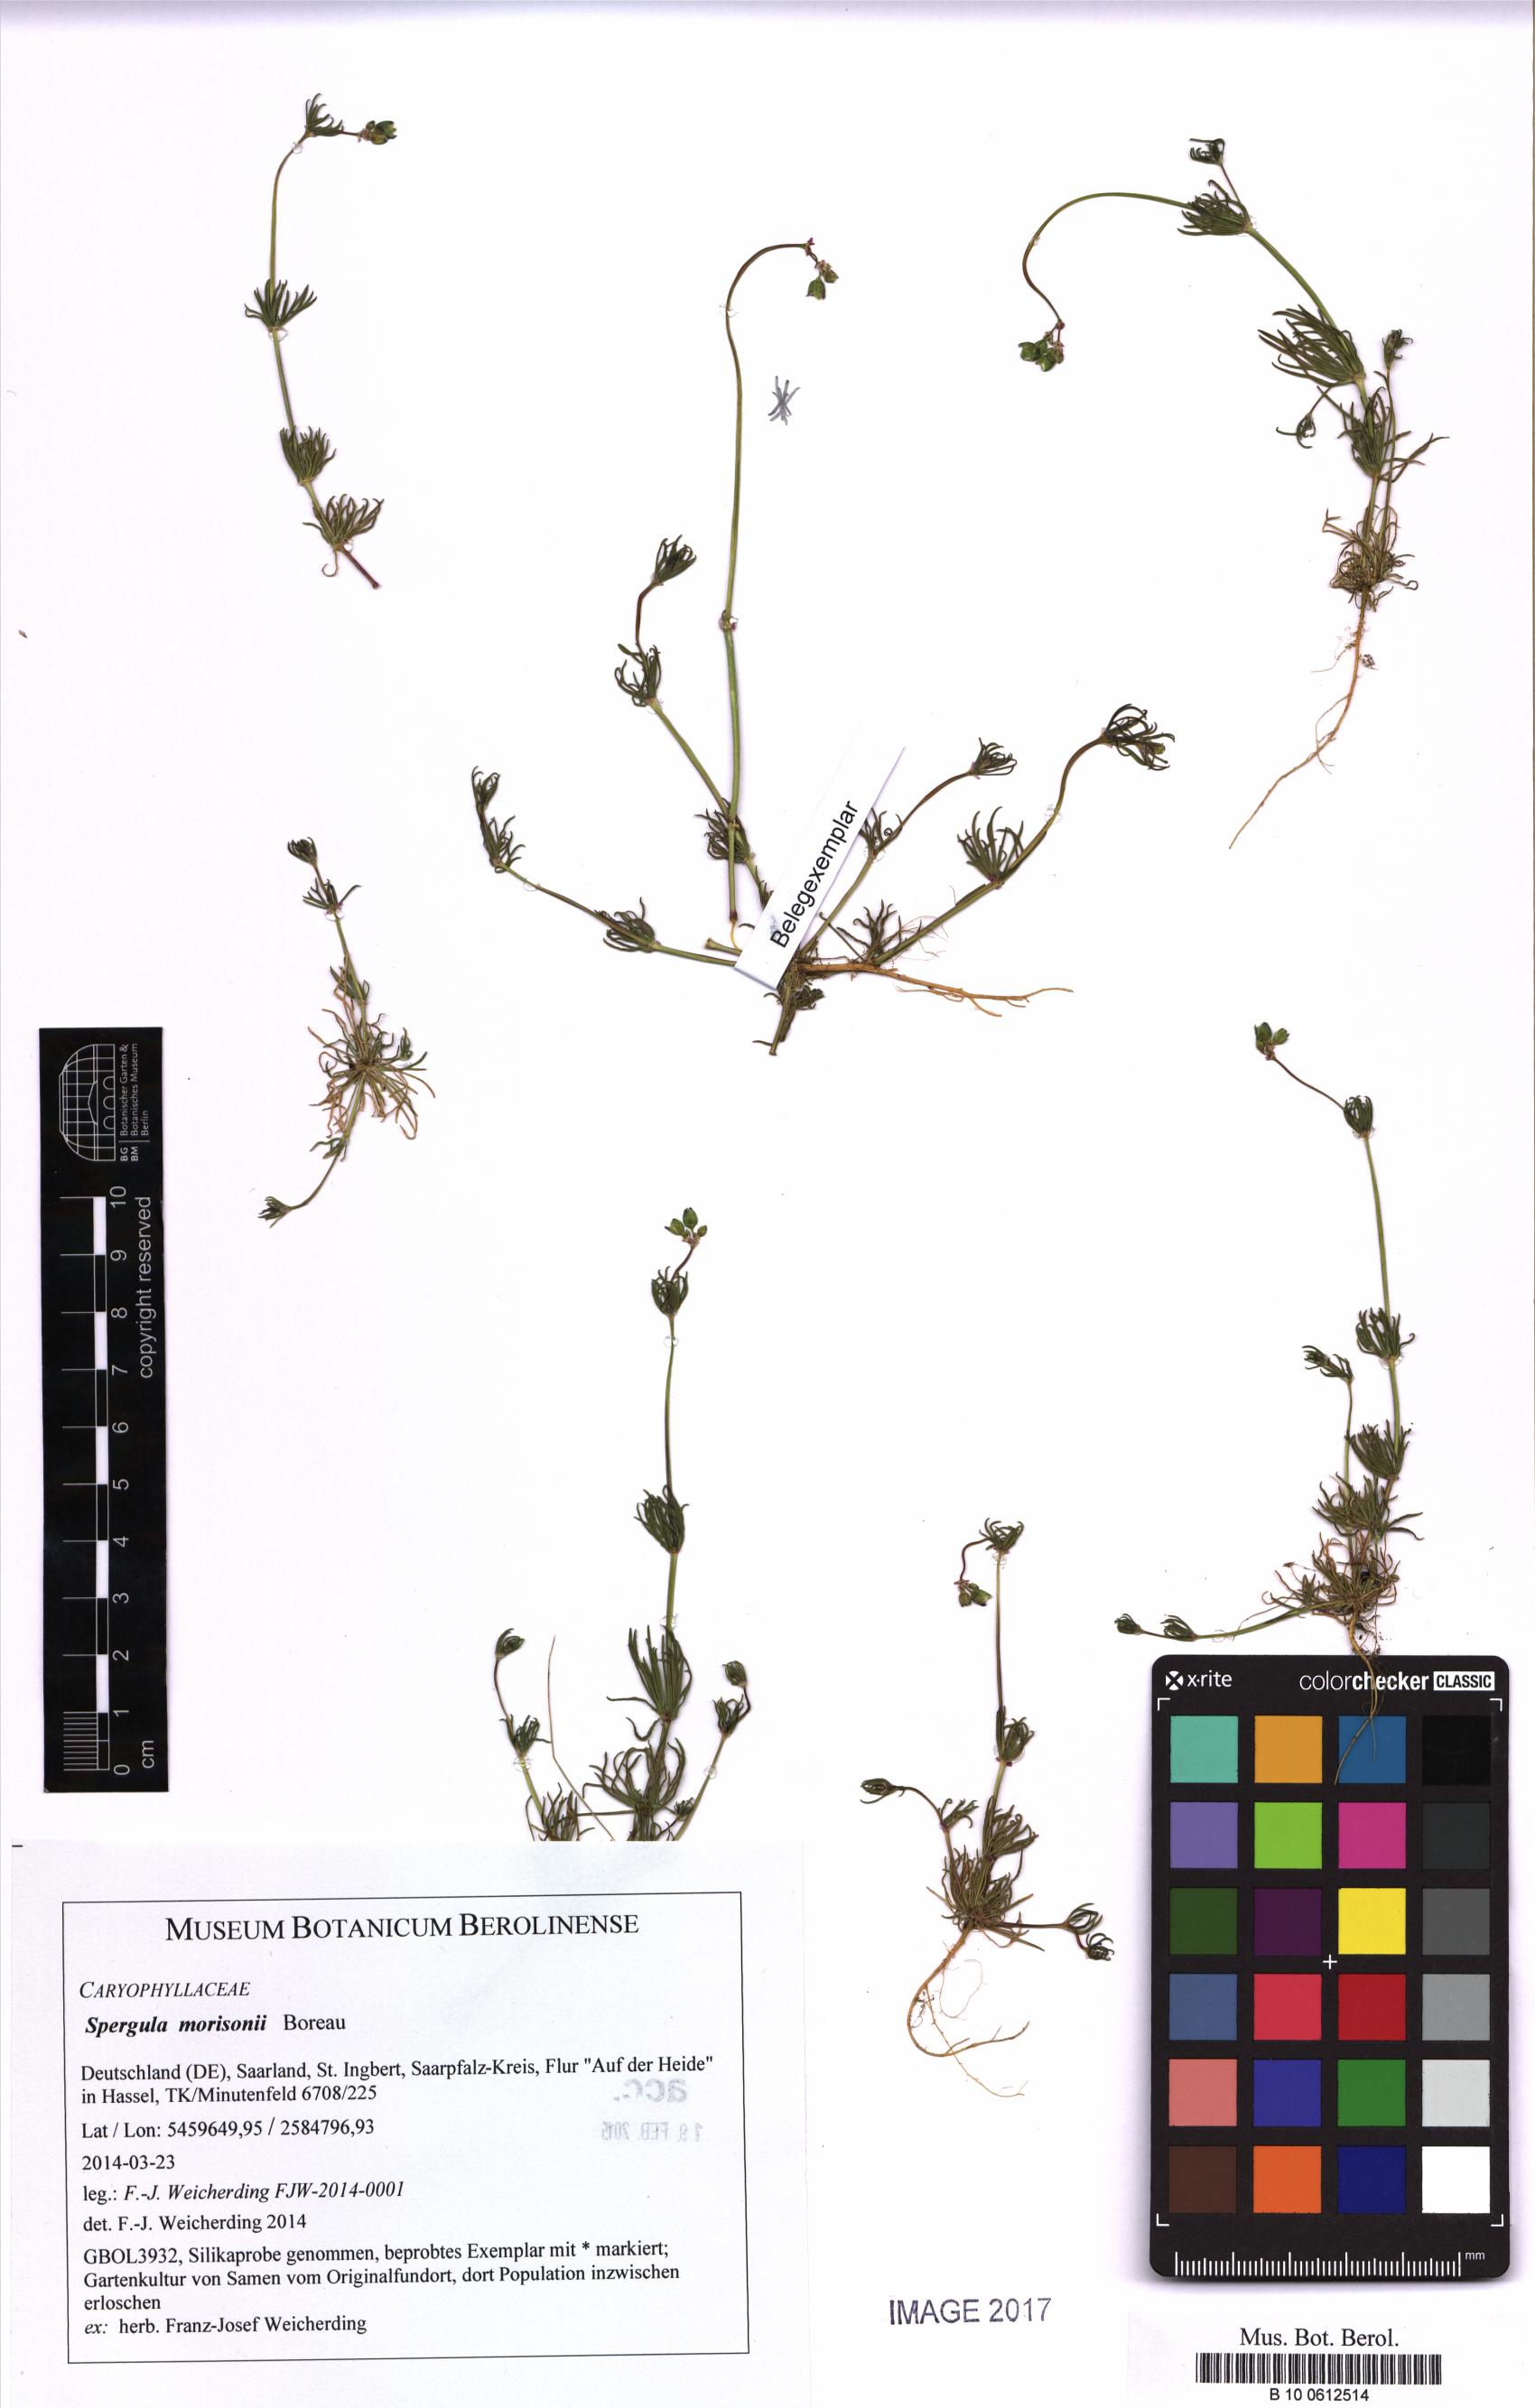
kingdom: Plantae
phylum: Tracheophyta
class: Magnoliopsida
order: Caryophyllales
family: Caryophyllaceae
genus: Spergula
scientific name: Spergula morisonii
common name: Pearlwort spurrey
